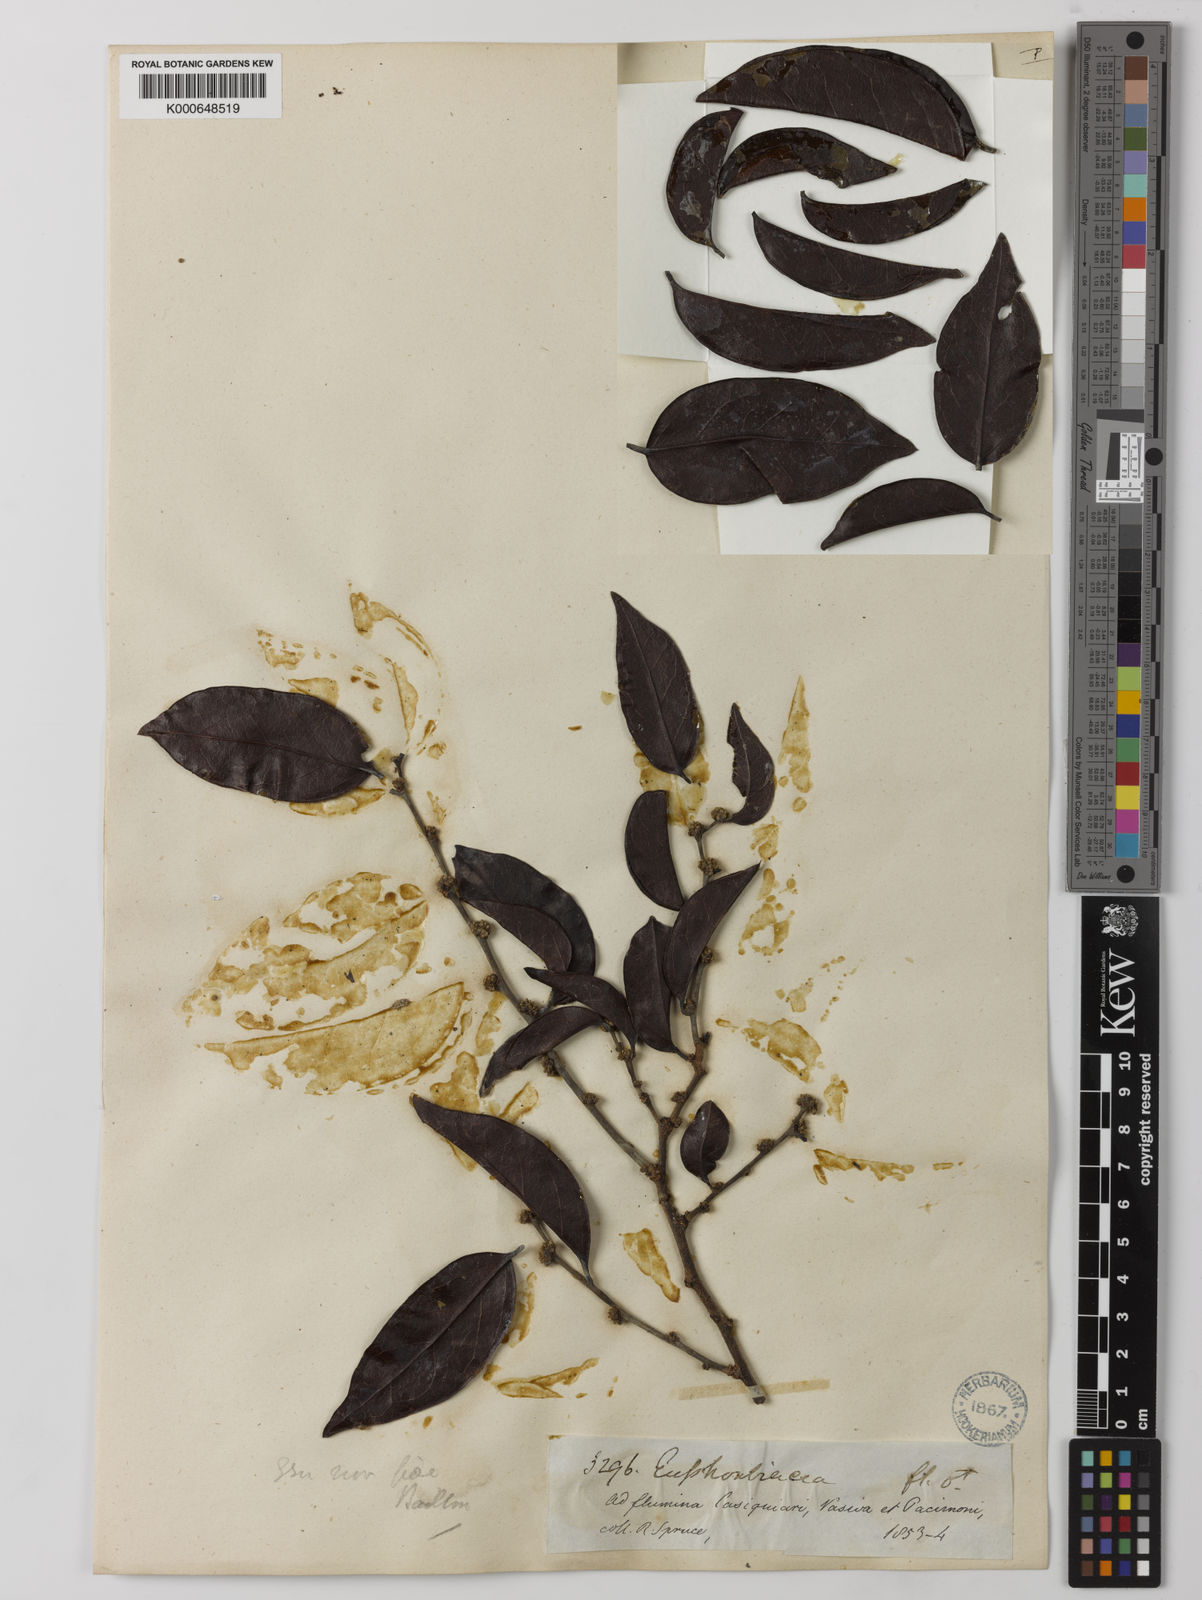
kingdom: Plantae
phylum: Tracheophyta
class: Magnoliopsida
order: Malpighiales
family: Peraceae
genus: Chaetocarpus
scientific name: Chaetocarpus schomburgkianus
